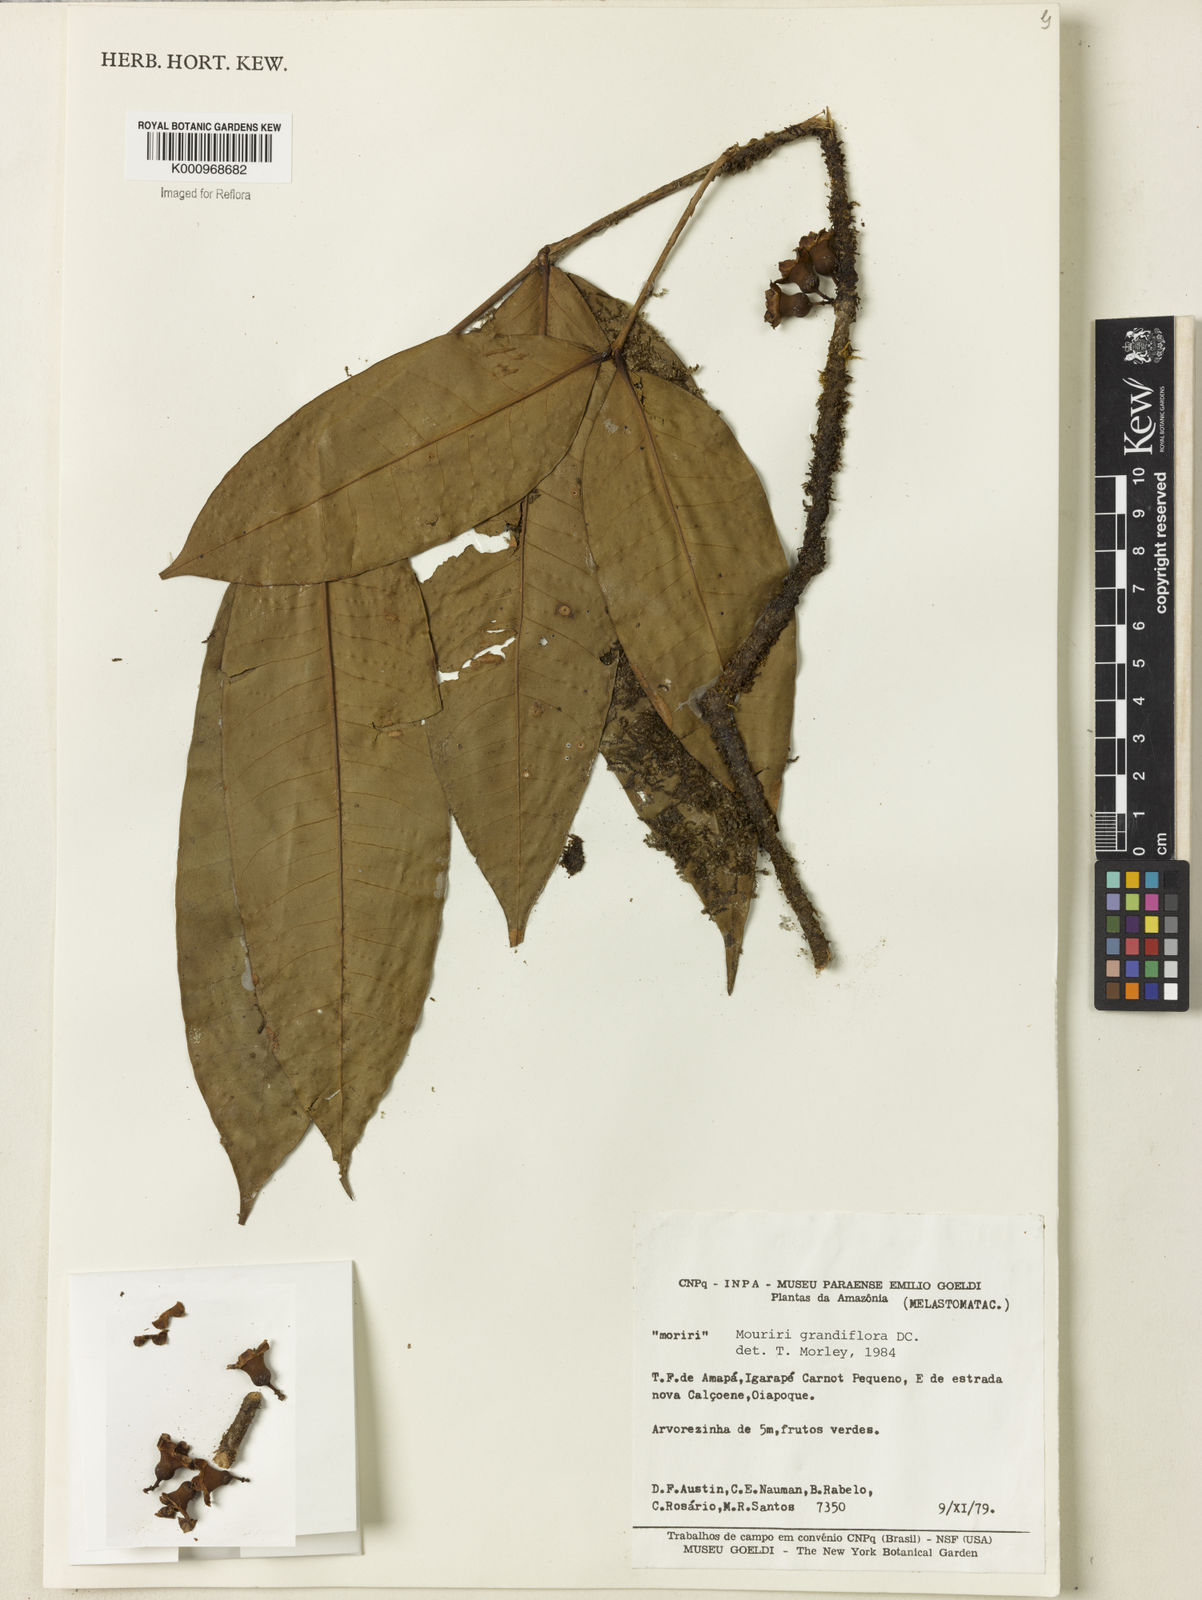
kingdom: Plantae
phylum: Tracheophyta
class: Magnoliopsida
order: Myrtales
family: Melastomataceae
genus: Mouriri
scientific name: Mouriri grandiflora
